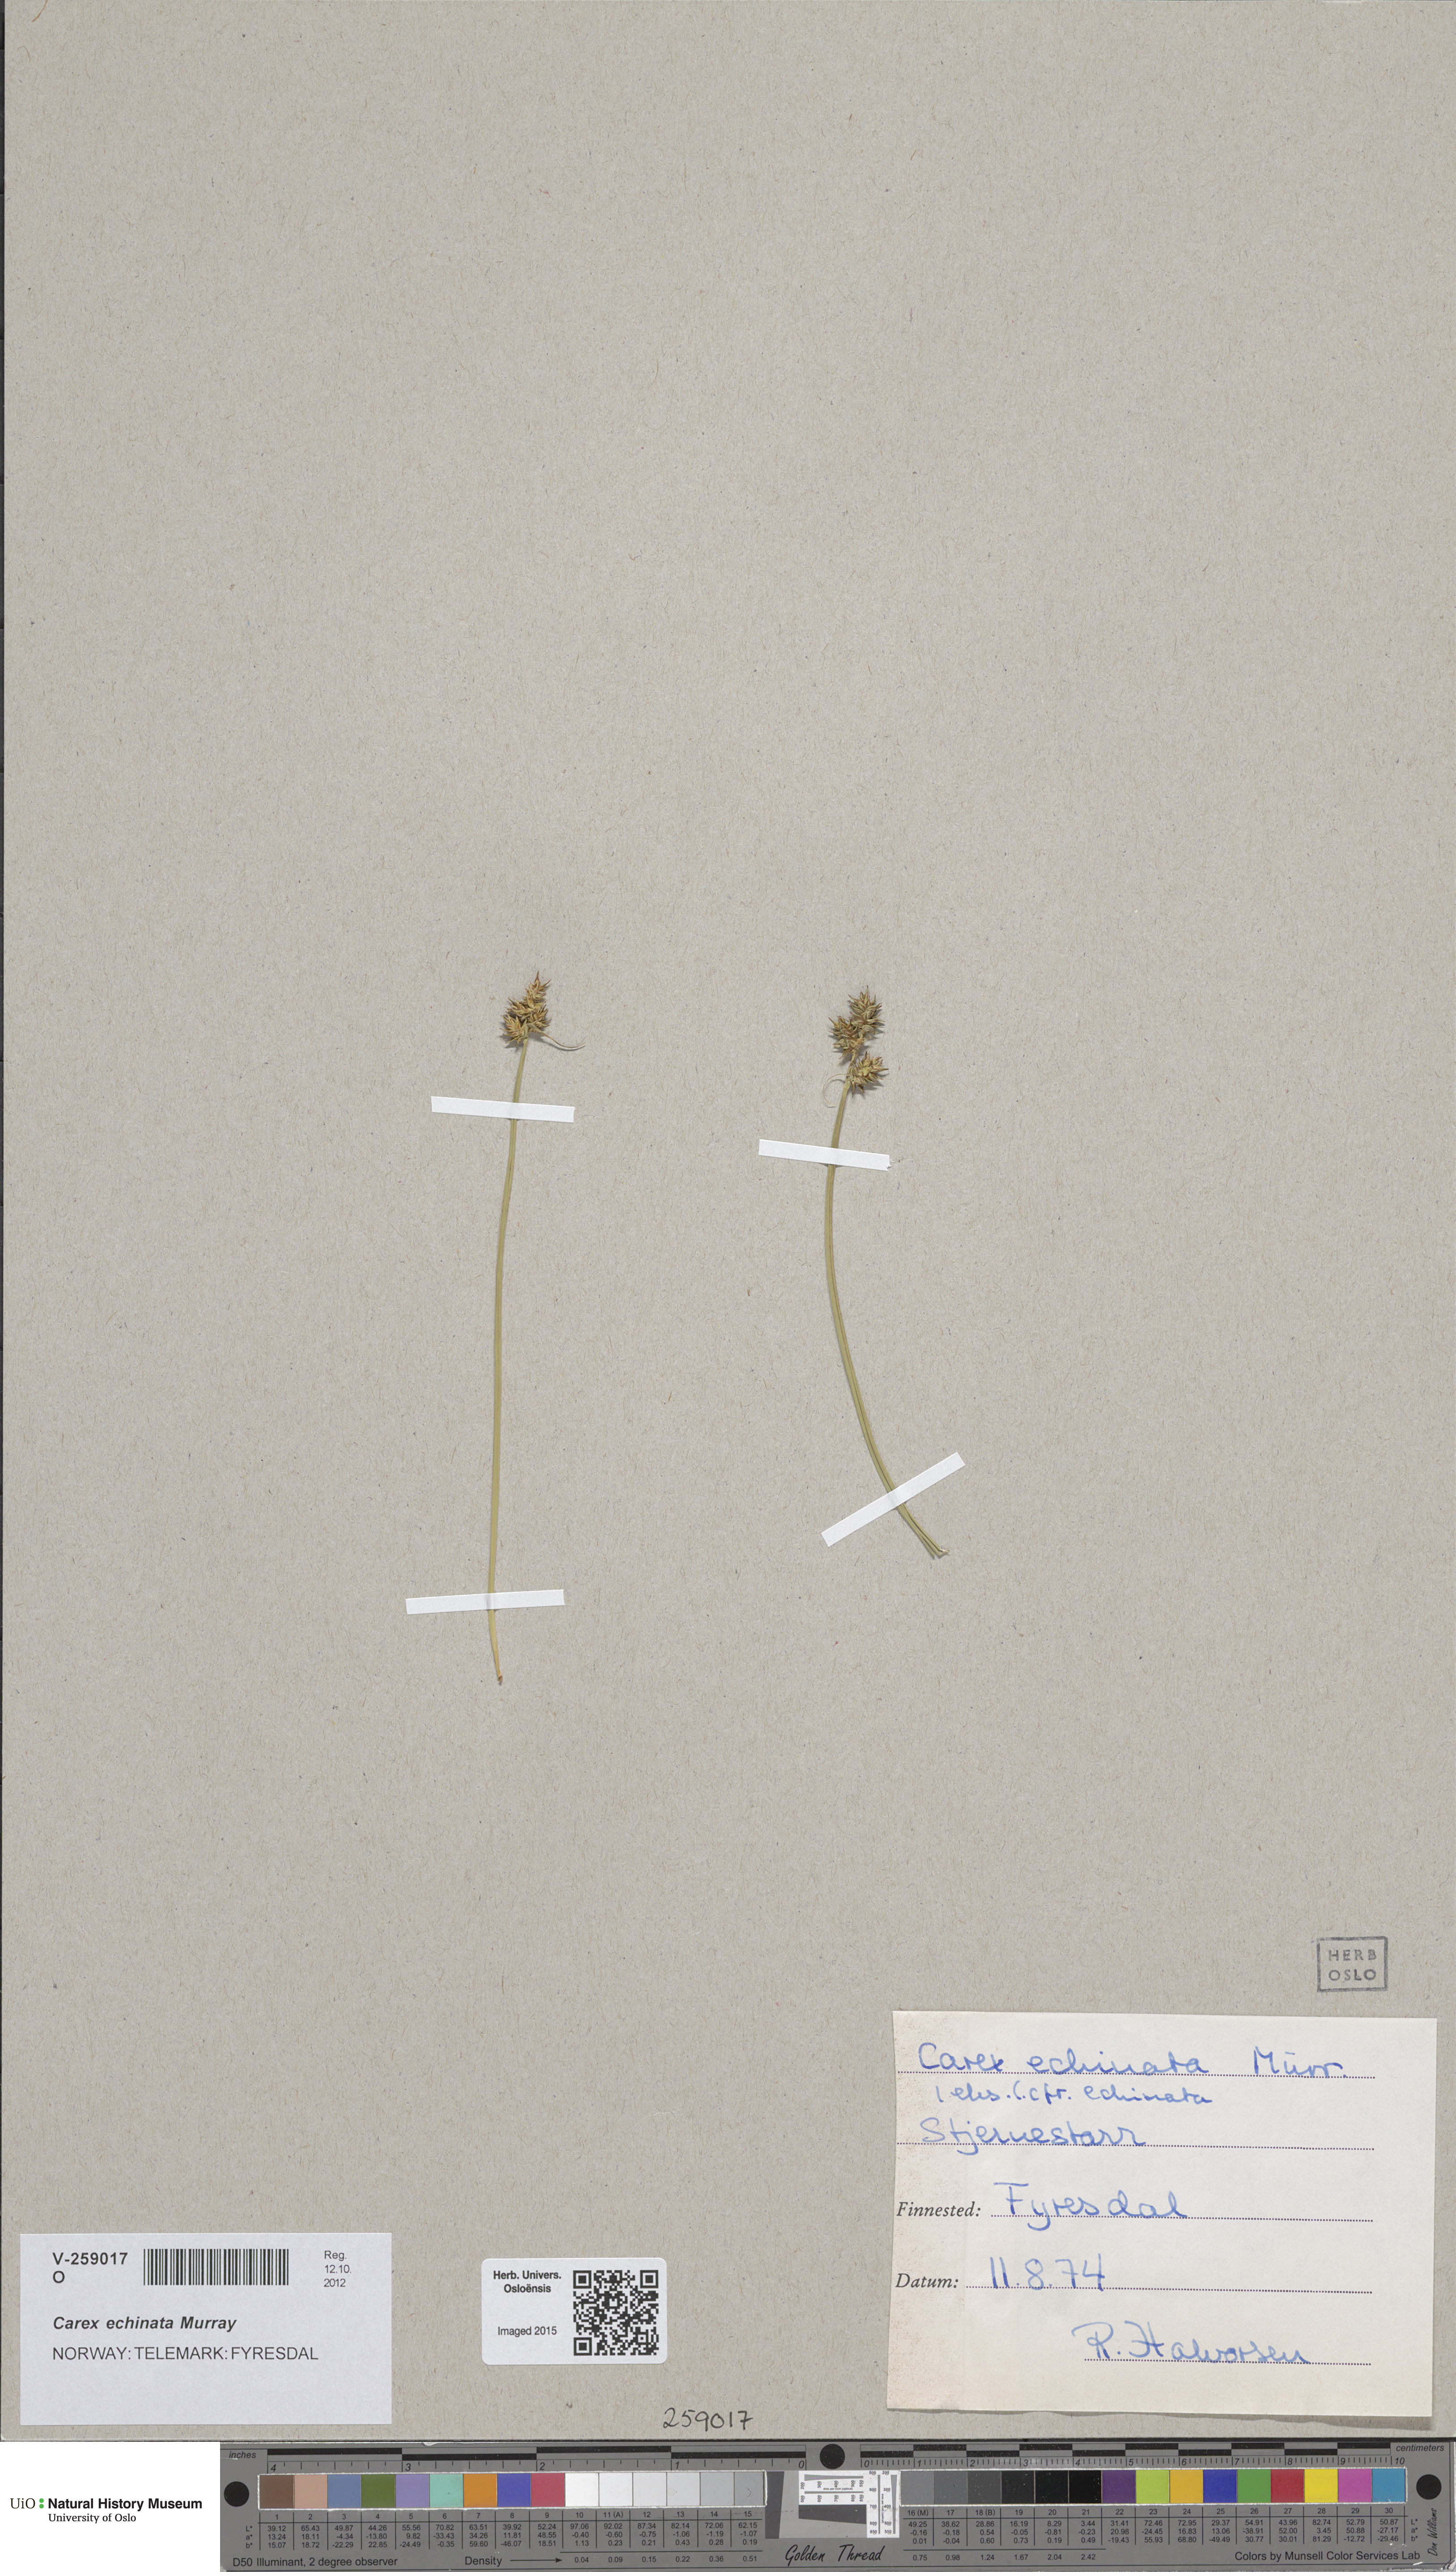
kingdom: Plantae
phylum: Tracheophyta
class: Liliopsida
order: Poales
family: Cyperaceae
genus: Carex
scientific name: Carex echinata
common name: Star sedge
